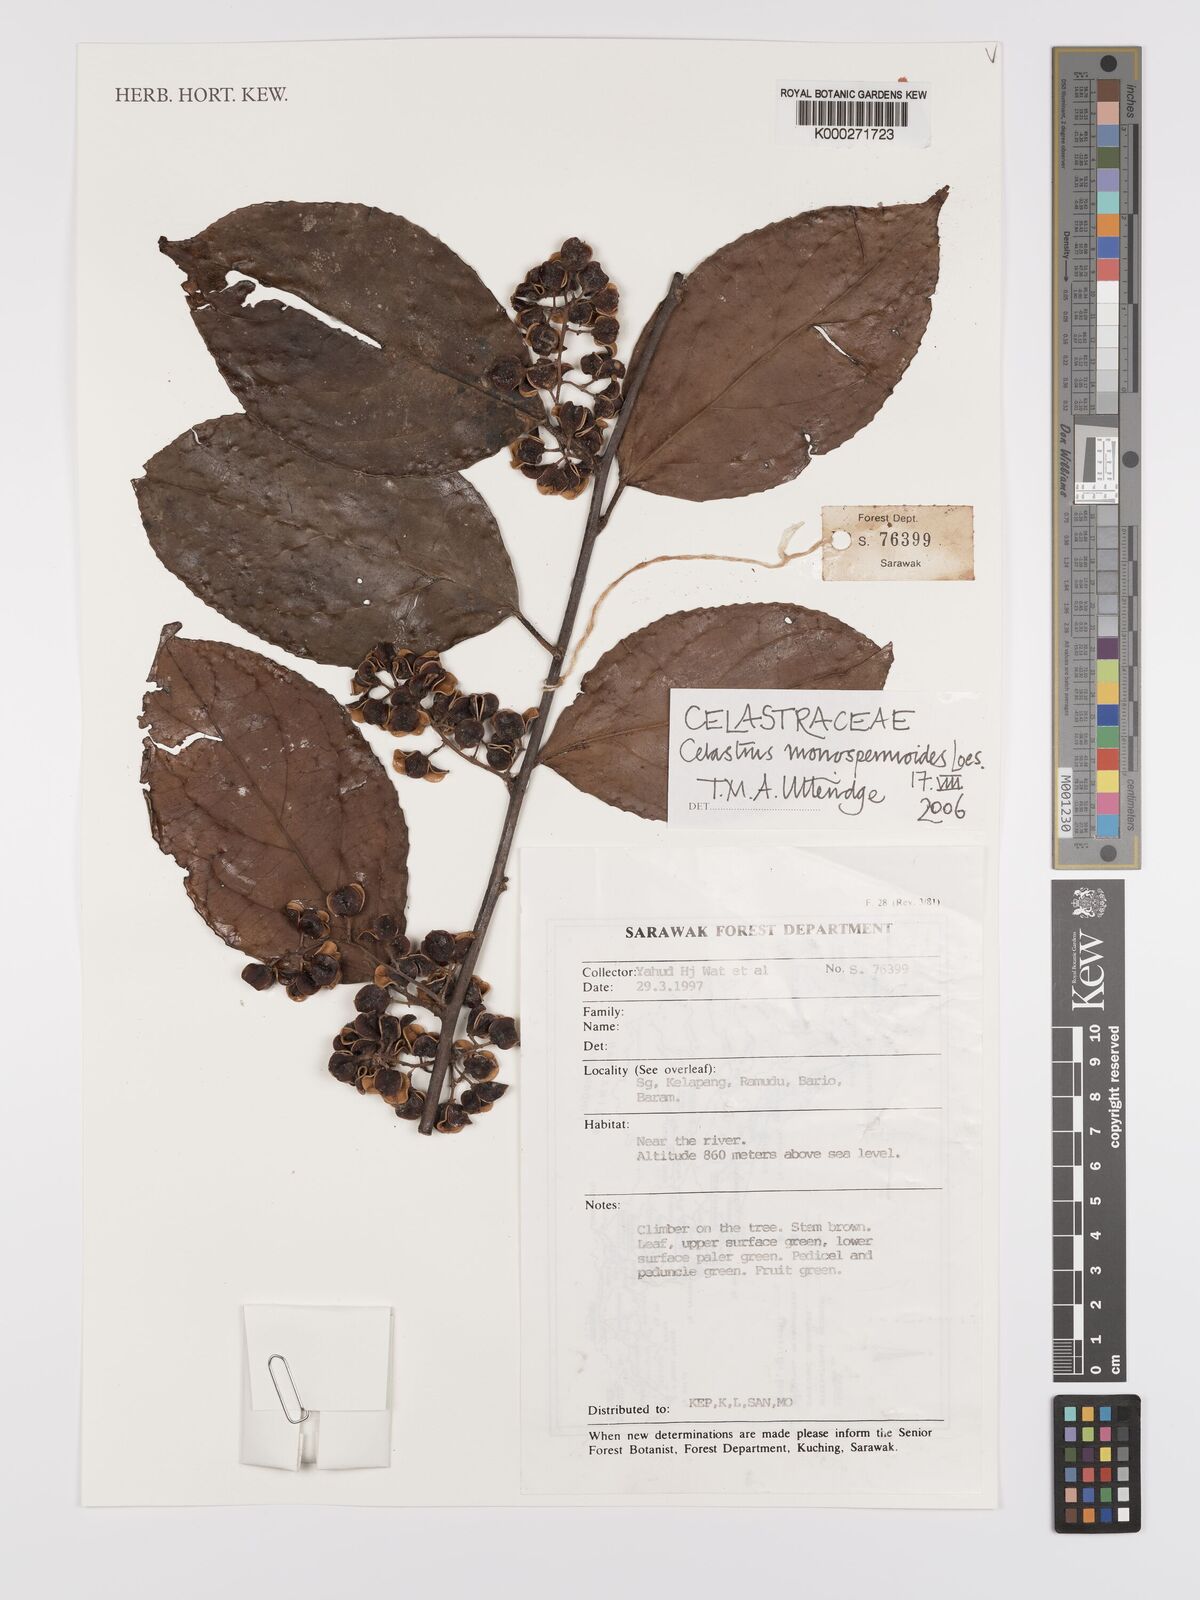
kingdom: Plantae
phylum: Tracheophyta
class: Magnoliopsida
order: Celastrales
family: Celastraceae
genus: Celastrus
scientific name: Celastrus monospermoides
